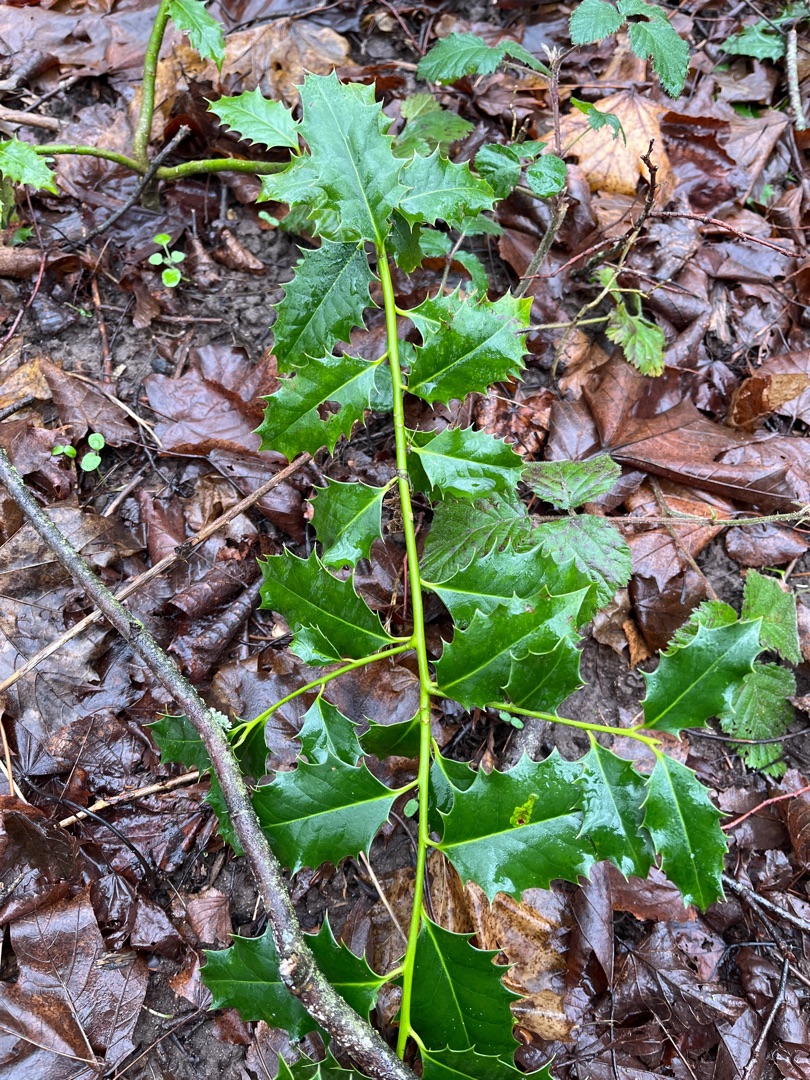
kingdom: Plantae
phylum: Tracheophyta
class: Magnoliopsida
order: Aquifoliales
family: Aquifoliaceae
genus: Ilex
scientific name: Ilex aquifolium
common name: Kristtorn
